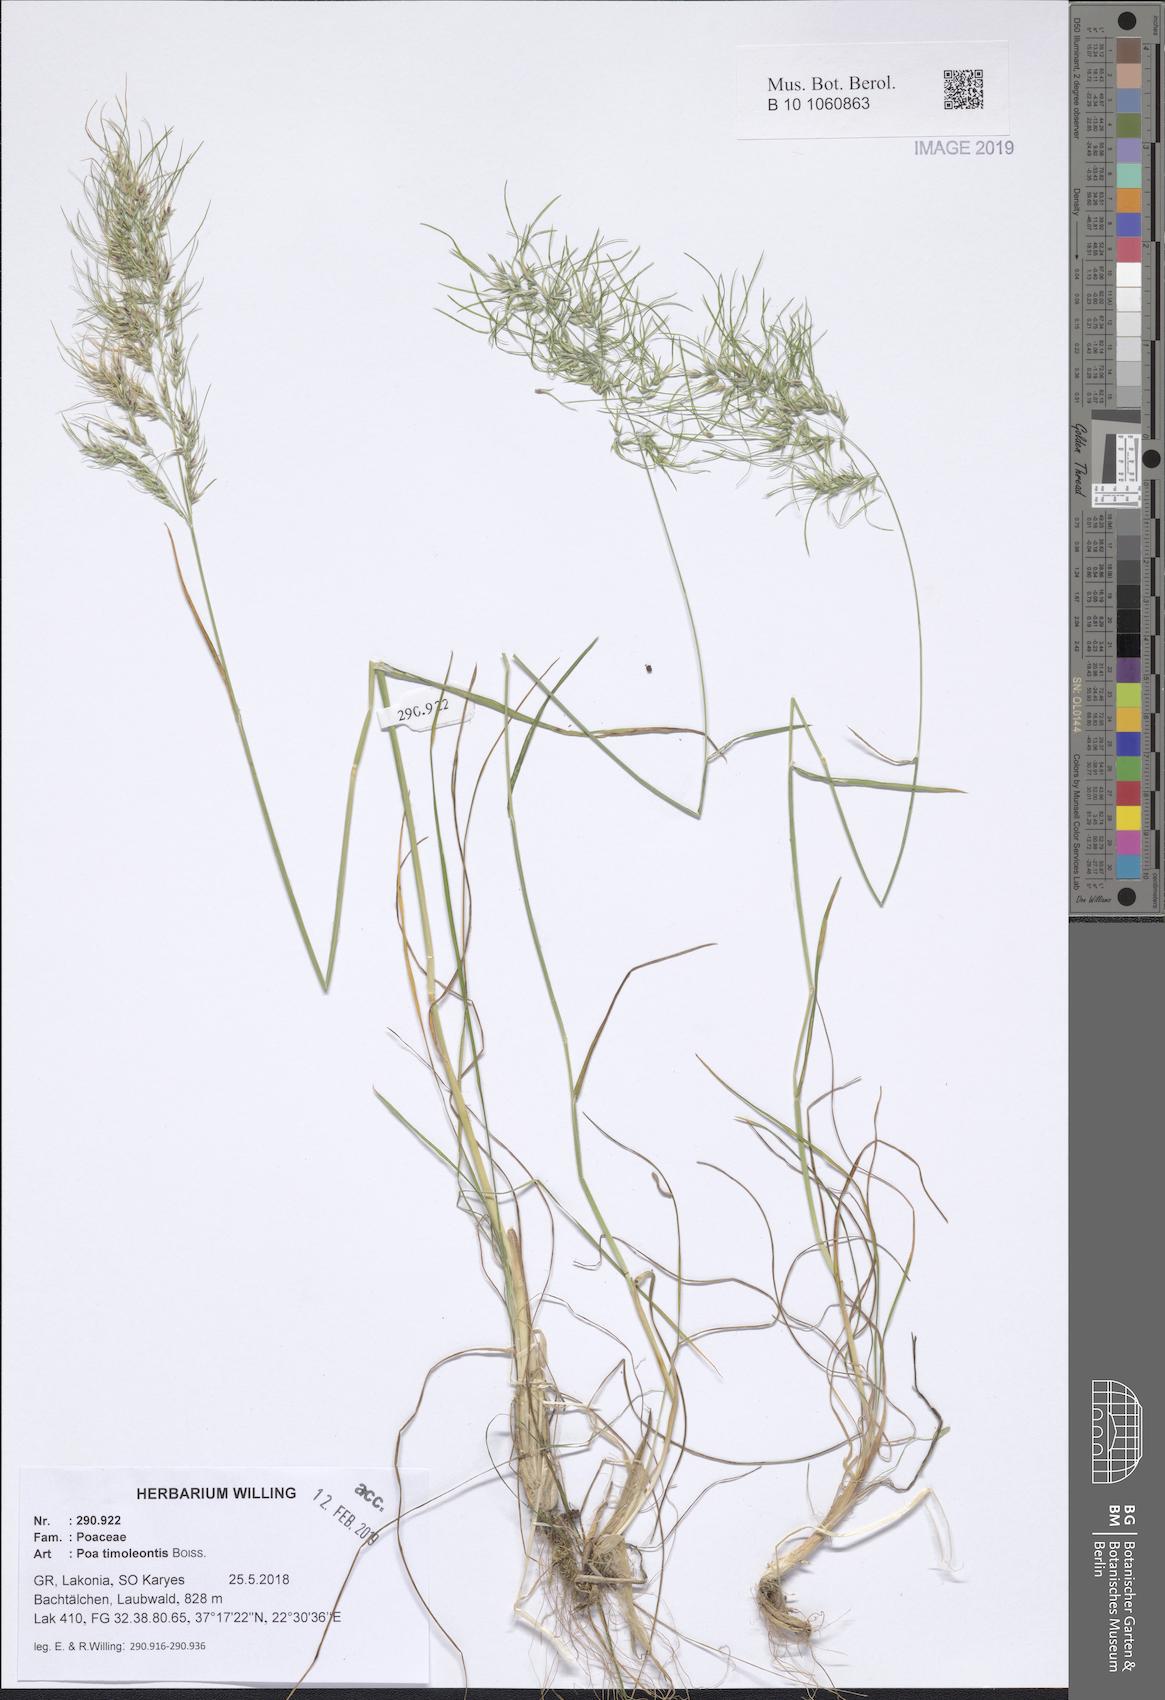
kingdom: Plantae
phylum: Tracheophyta
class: Liliopsida
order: Poales
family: Poaceae
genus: Poa
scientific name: Poa timoleontis
